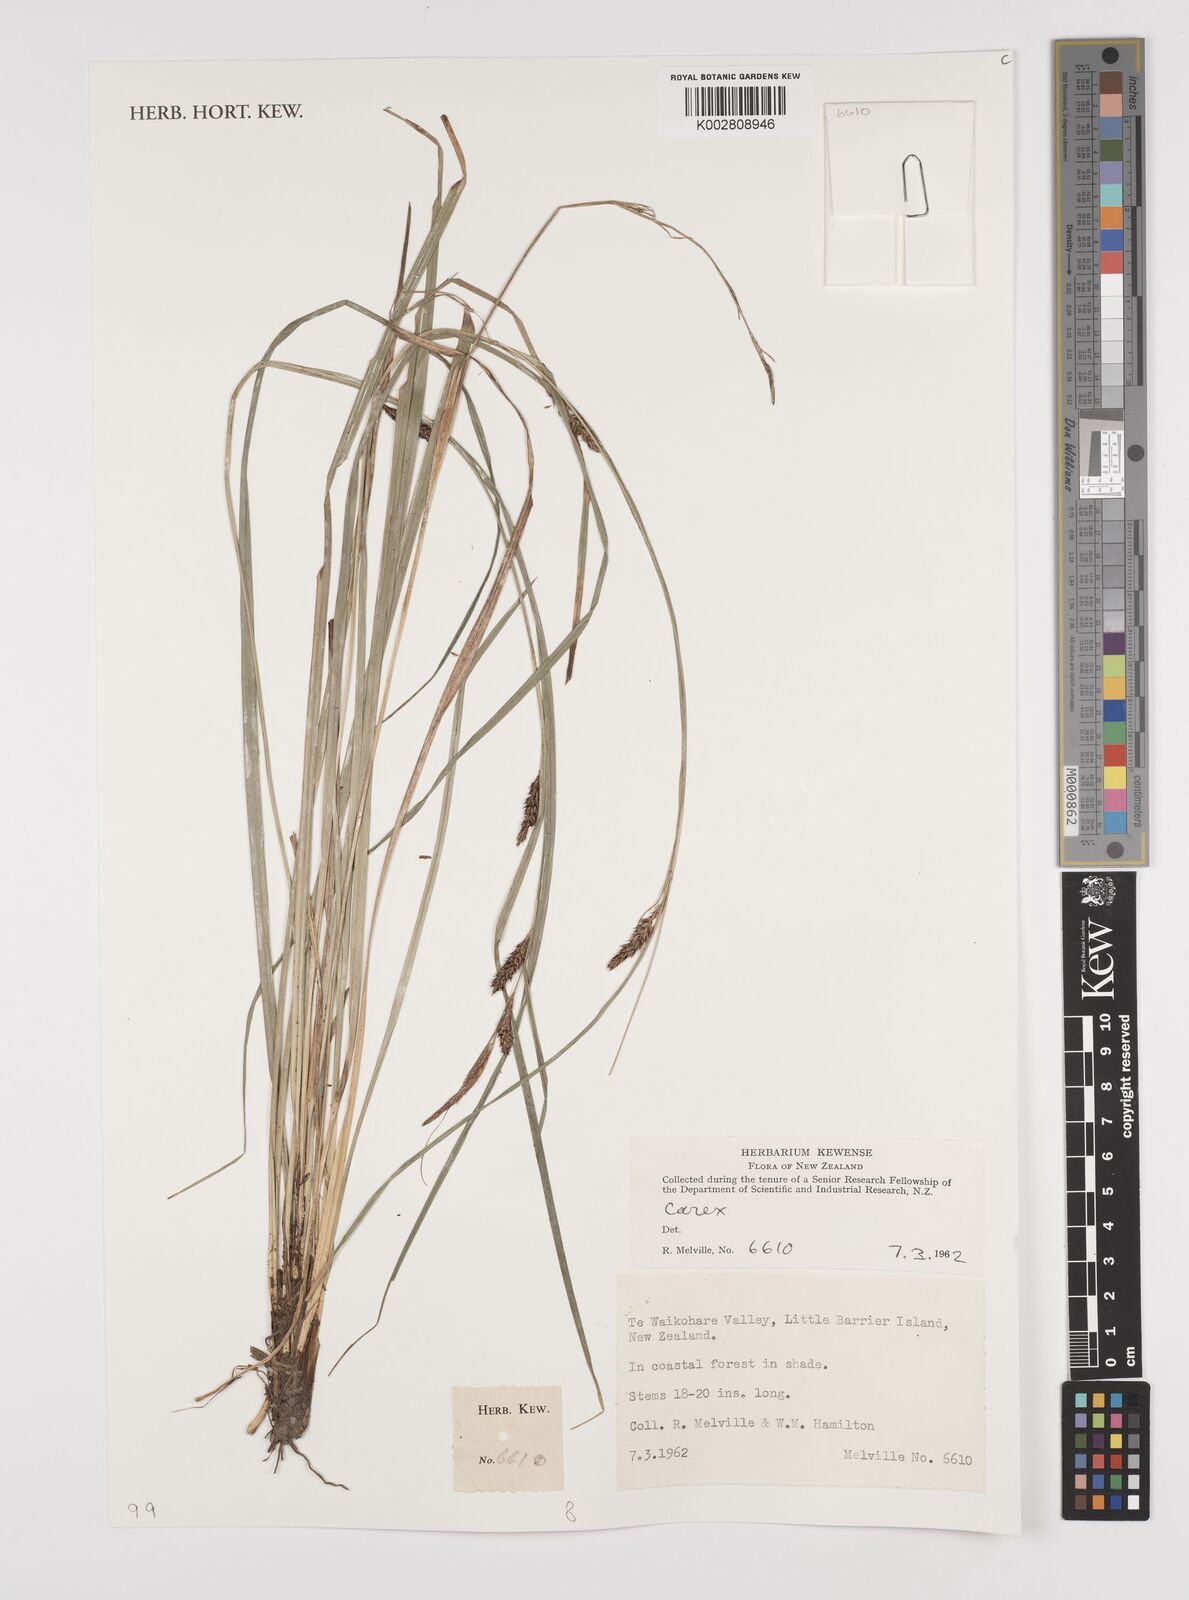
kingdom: Plantae
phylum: Tracheophyta
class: Liliopsida
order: Poales
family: Cyperaceae
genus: Carex
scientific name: Carex
